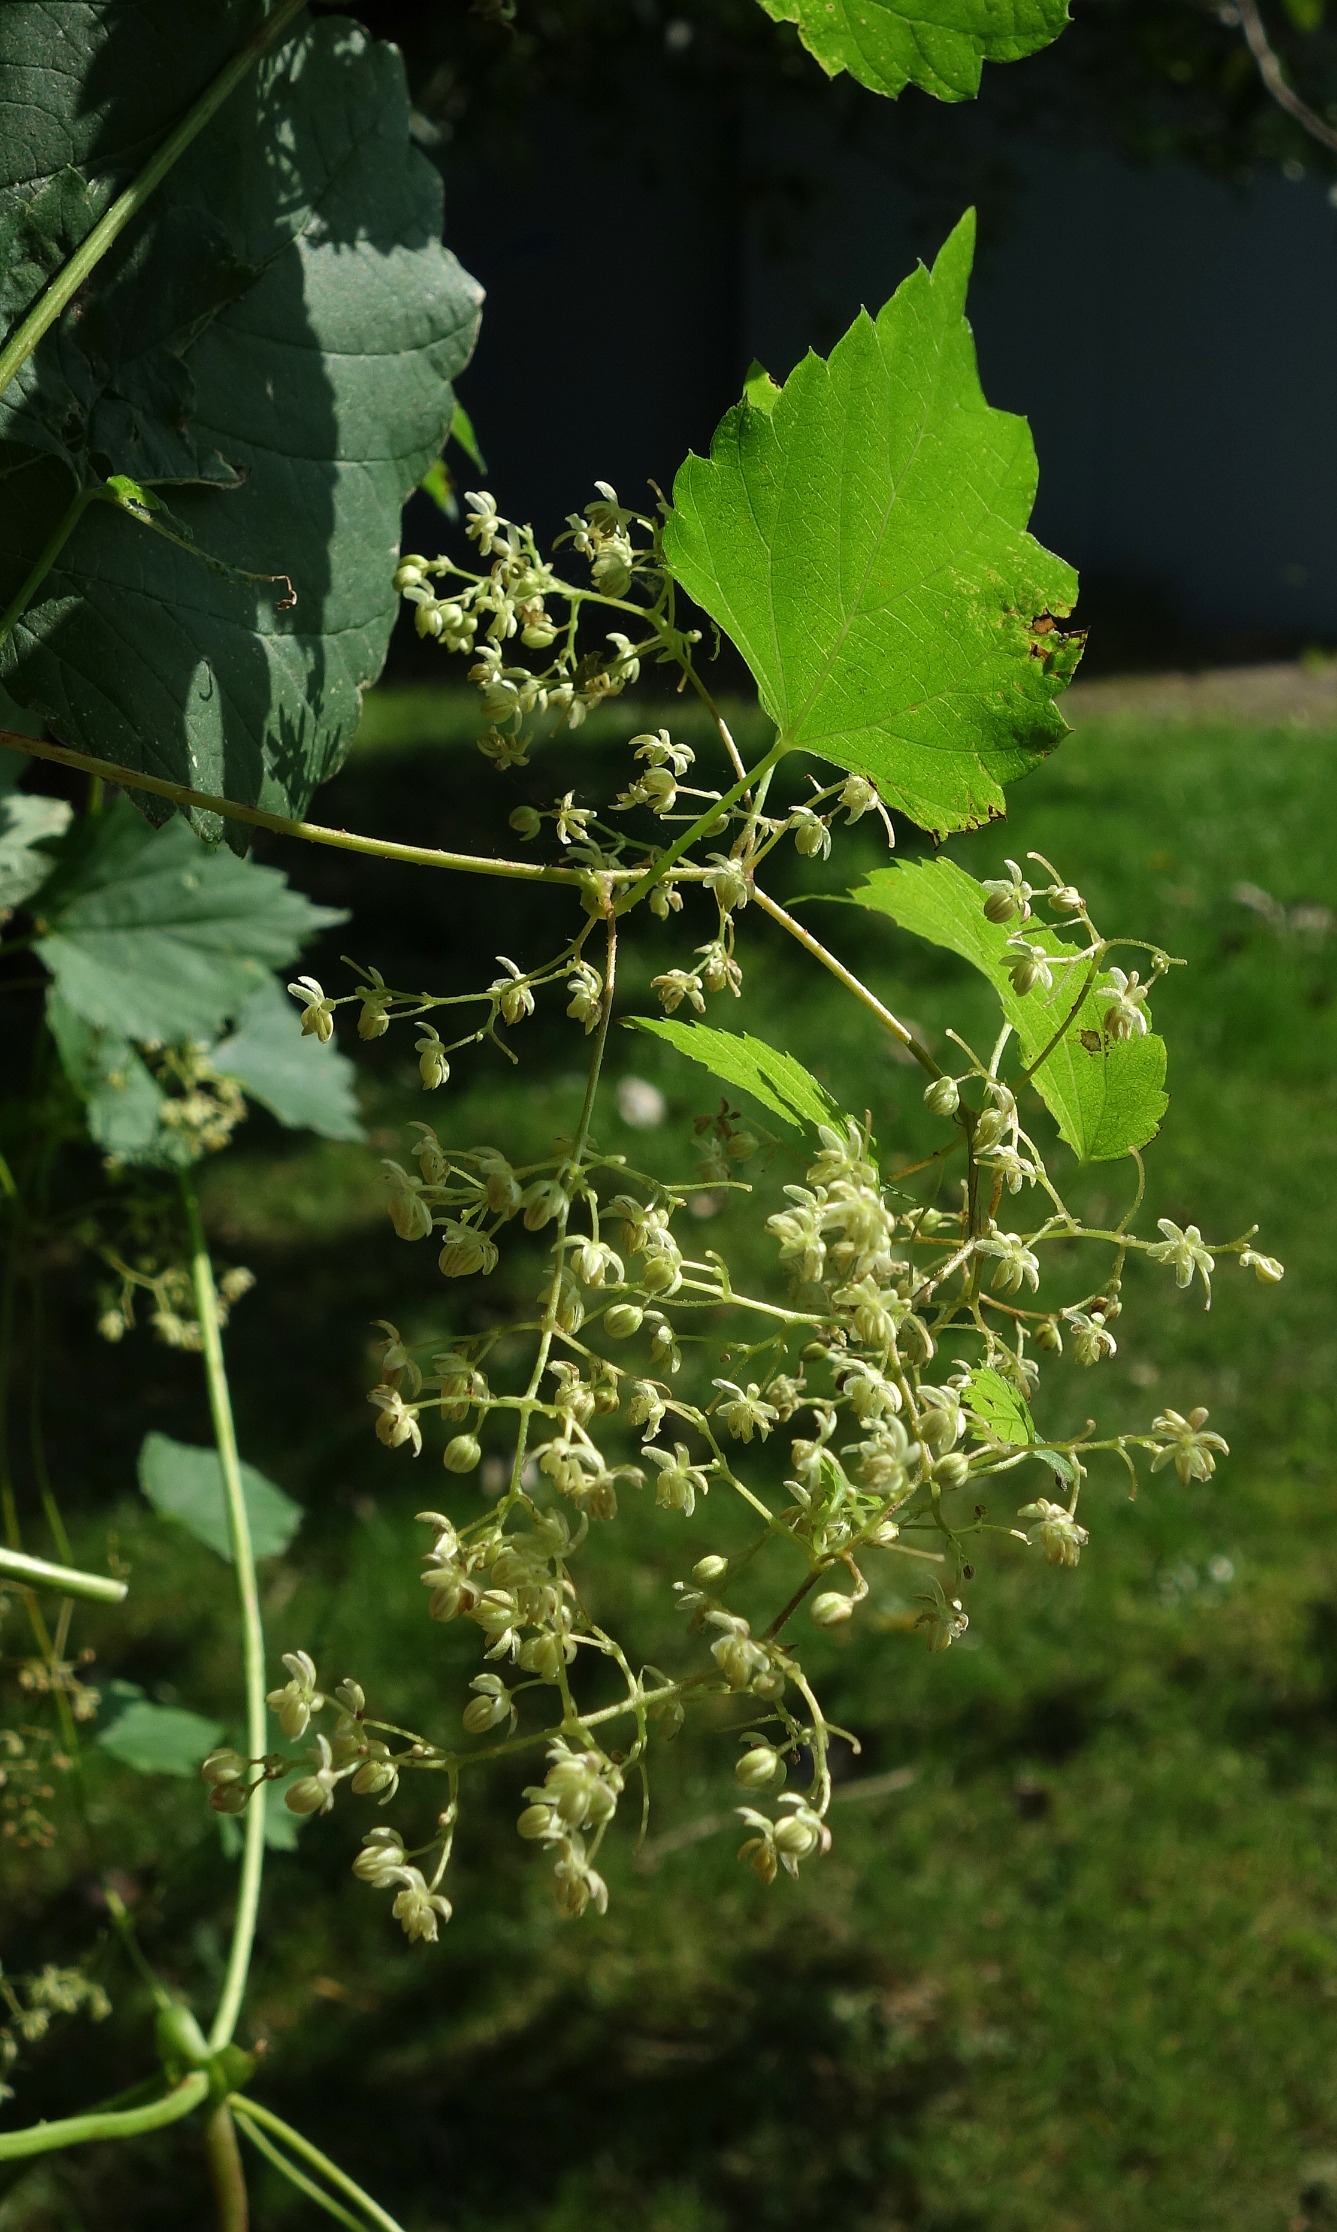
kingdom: Plantae
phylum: Tracheophyta
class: Magnoliopsida
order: Rosales
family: Cannabaceae
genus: Humulus
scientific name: Humulus lupulus
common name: Humle
